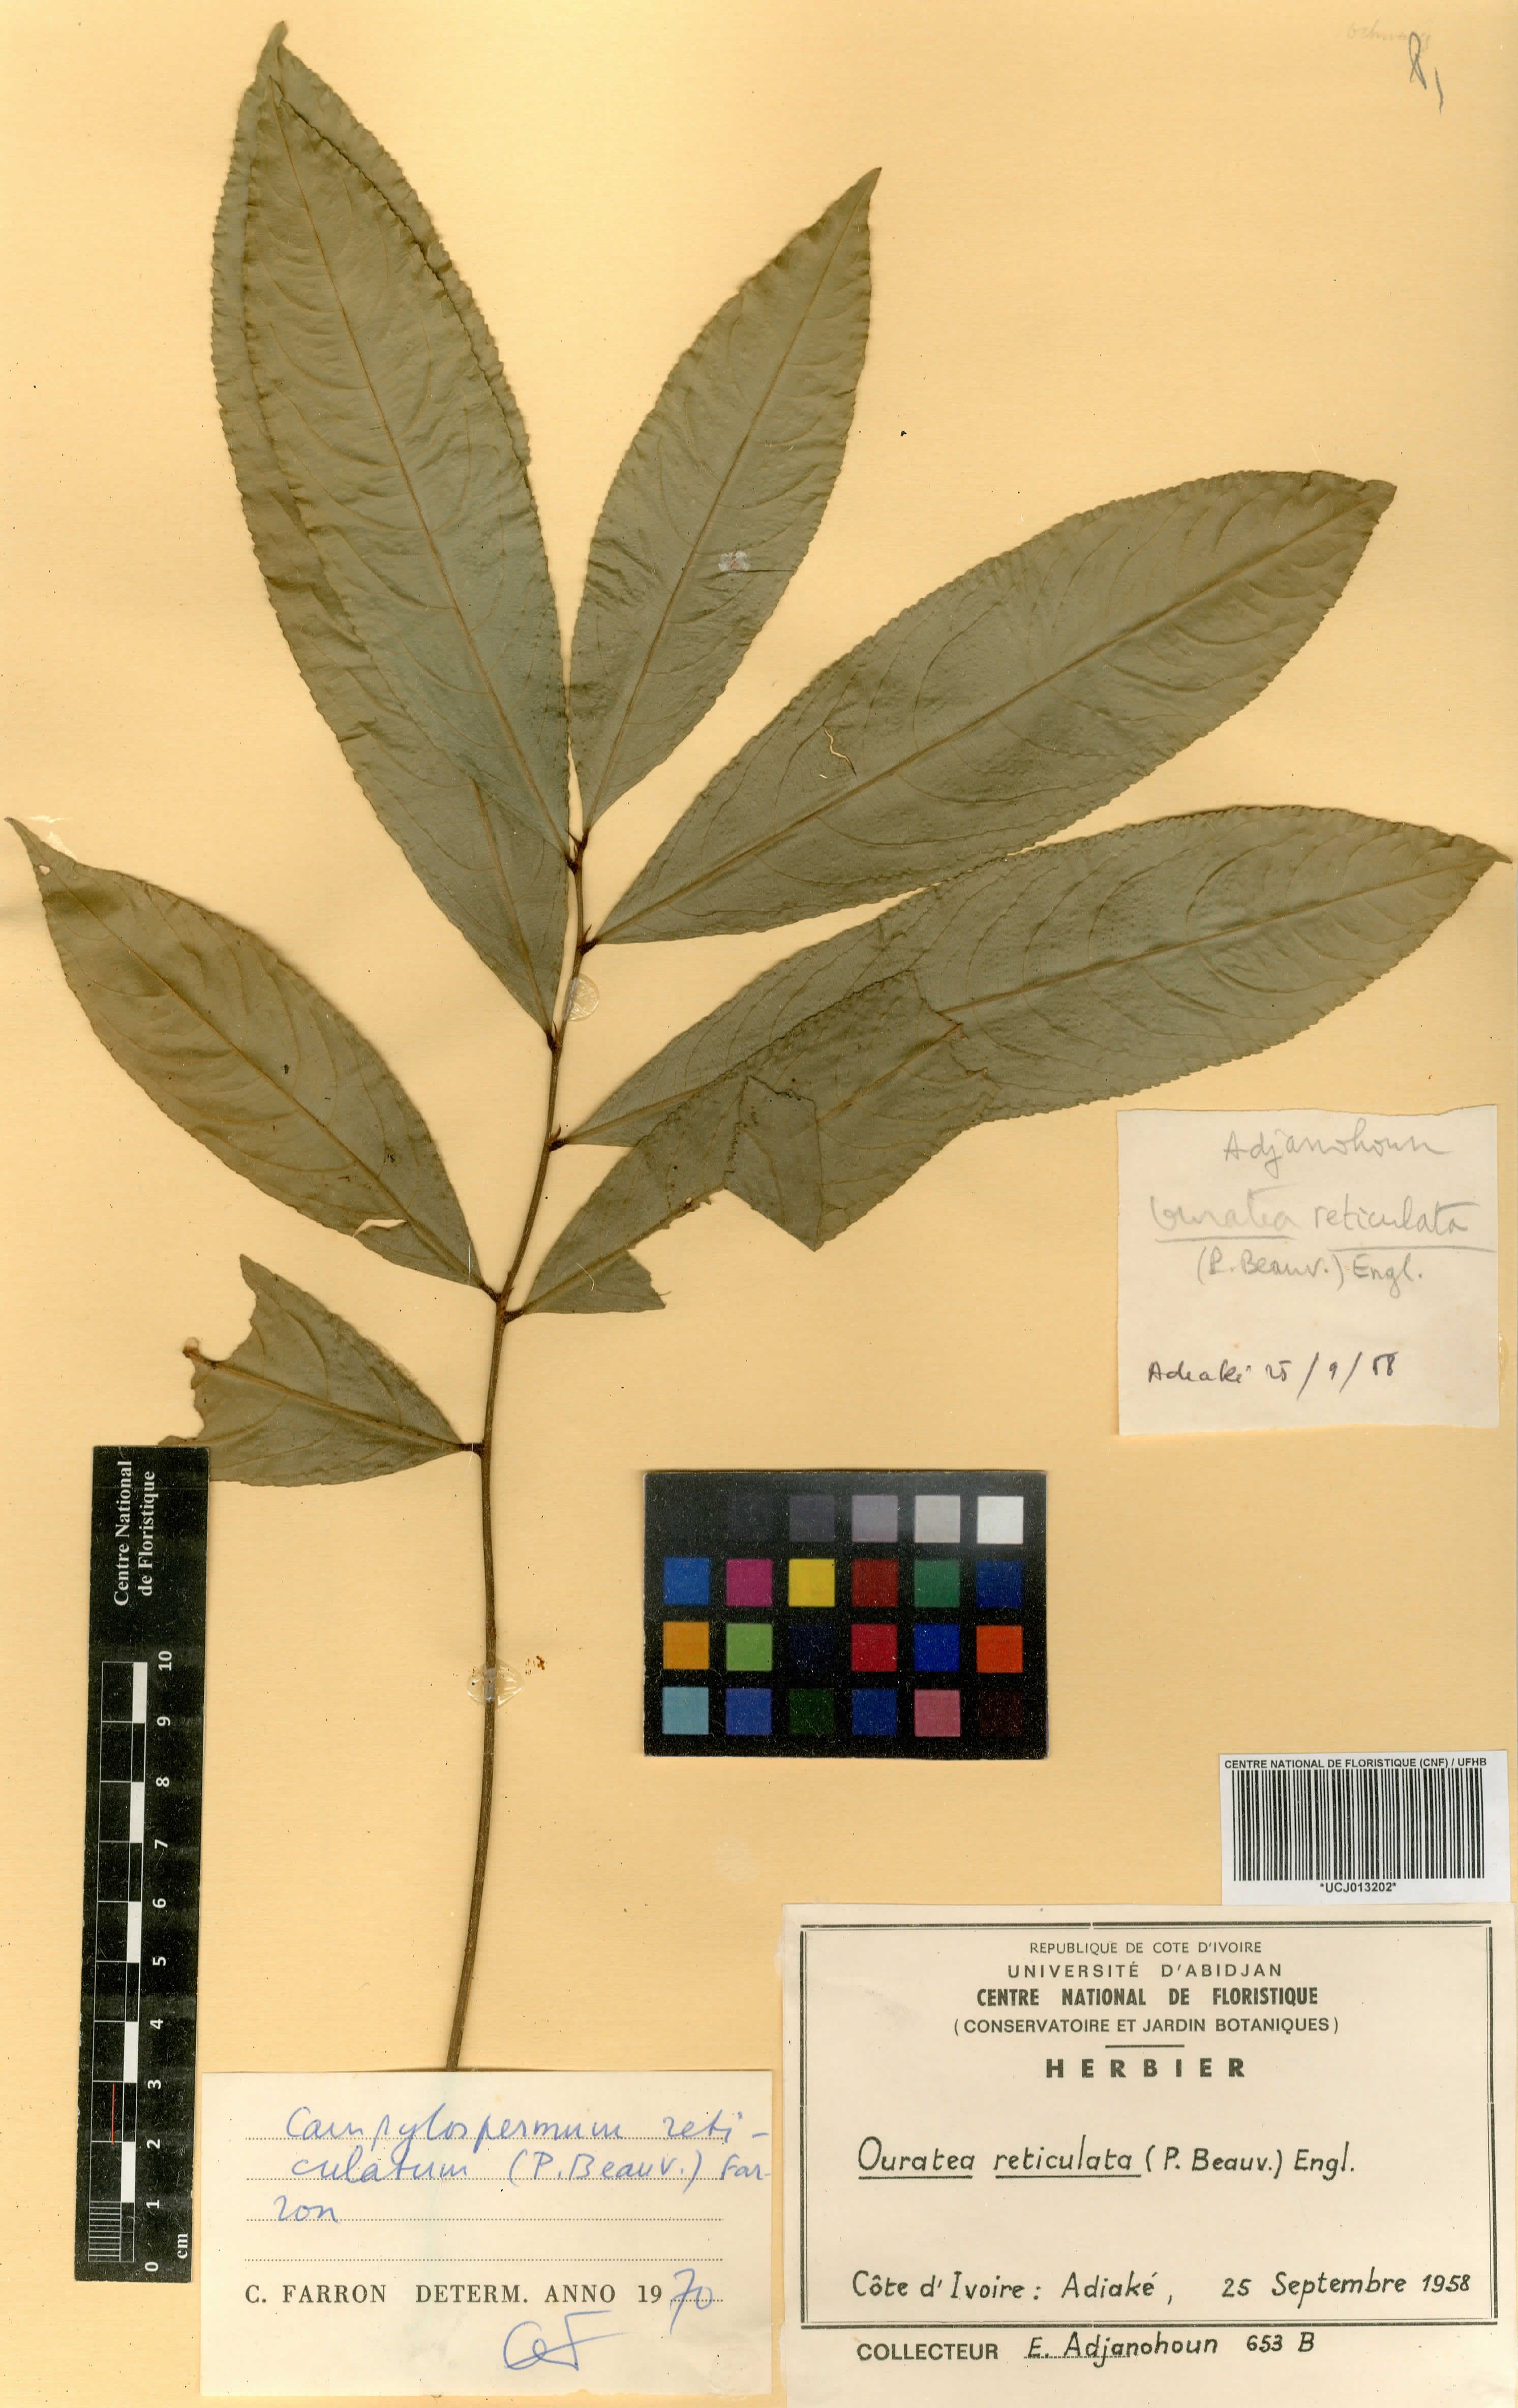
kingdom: Plantae
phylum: Tracheophyta
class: Magnoliopsida
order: Malpighiales
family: Ochnaceae
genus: Campylospermum
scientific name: Campylospermum reticulatum
